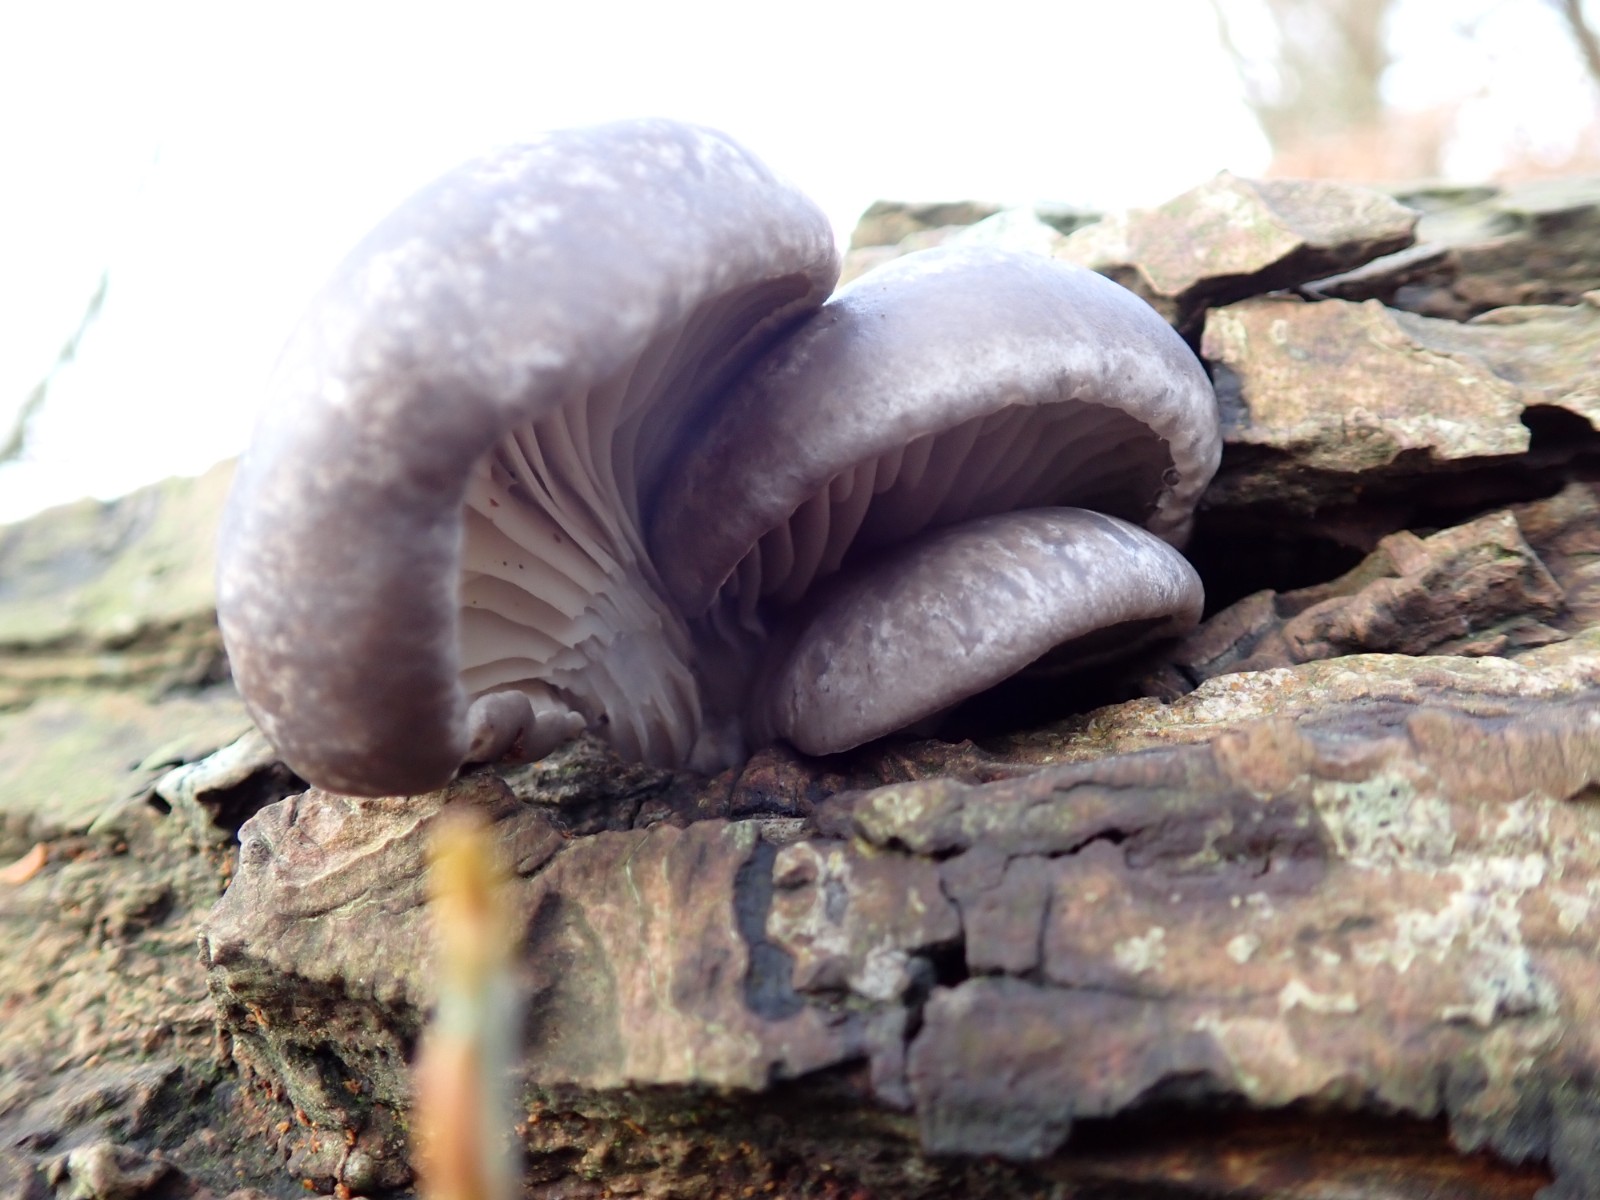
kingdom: Fungi
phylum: Basidiomycota
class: Agaricomycetes
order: Agaricales
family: Pleurotaceae
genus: Pleurotus
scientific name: Pleurotus ostreatus
